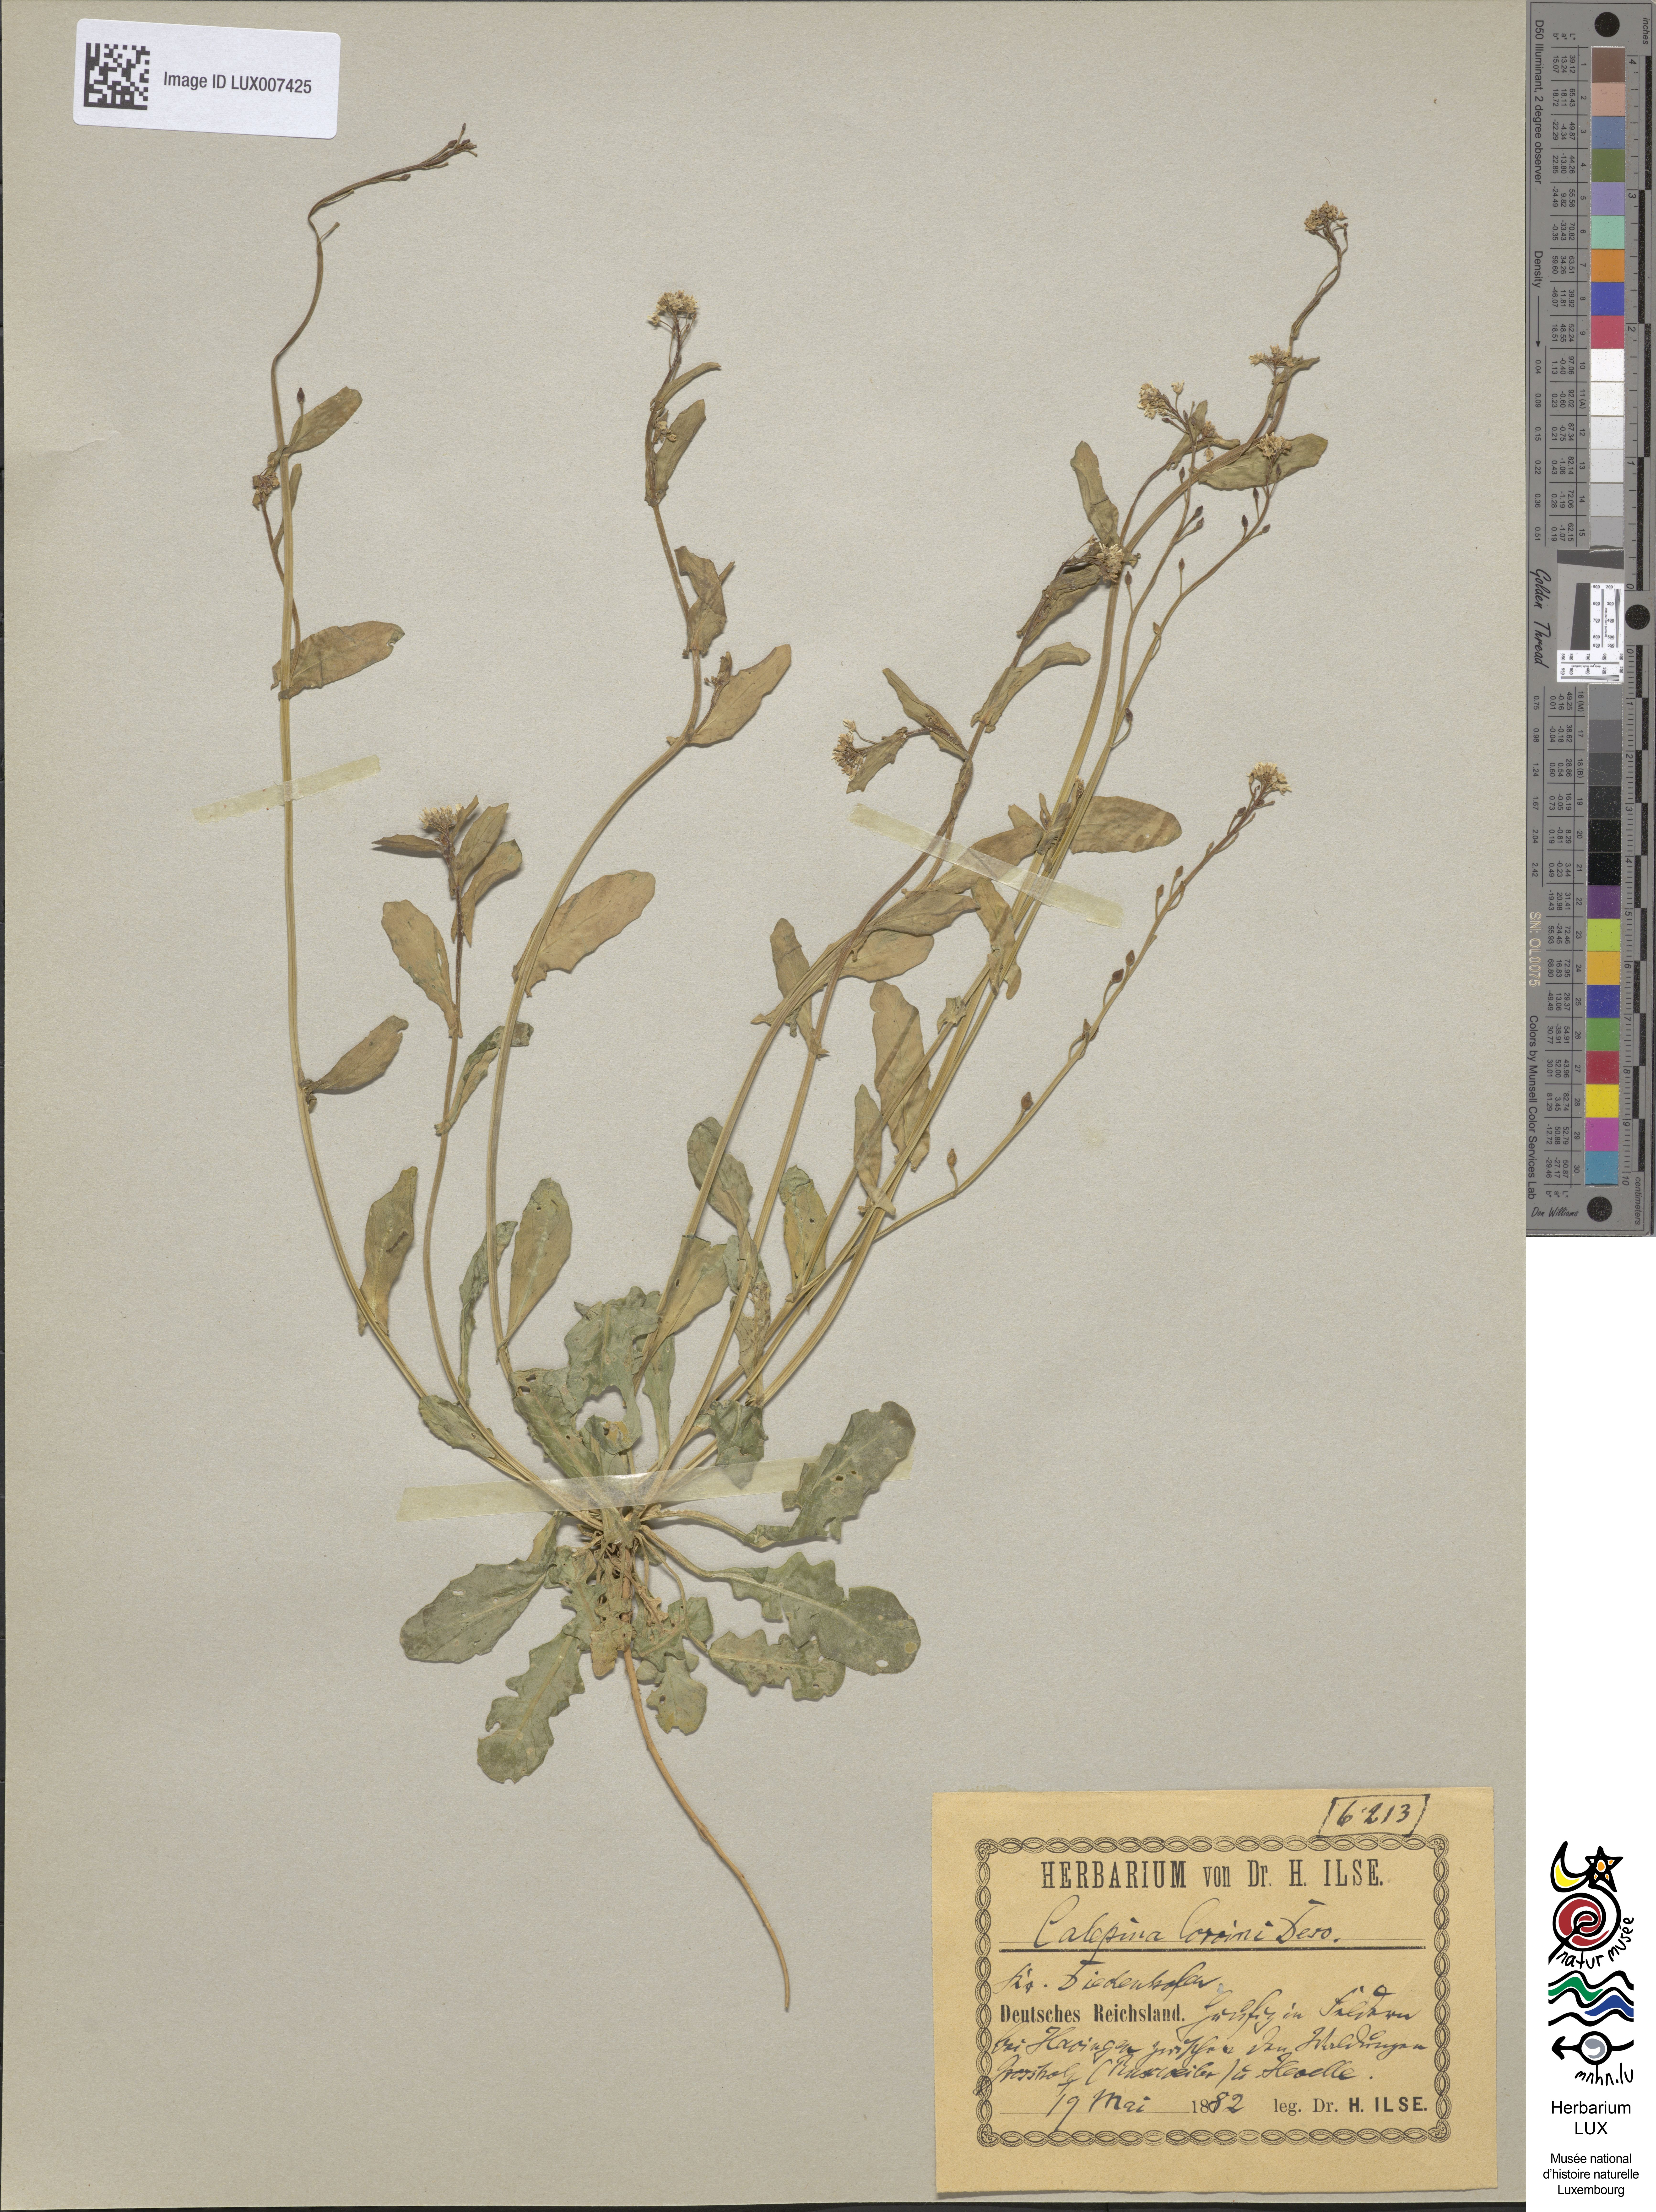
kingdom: Plantae
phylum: Tracheophyta
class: Magnoliopsida
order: Brassicales
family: Brassicaceae
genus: Calepina
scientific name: Calepina irregularis
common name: White ballmustard
